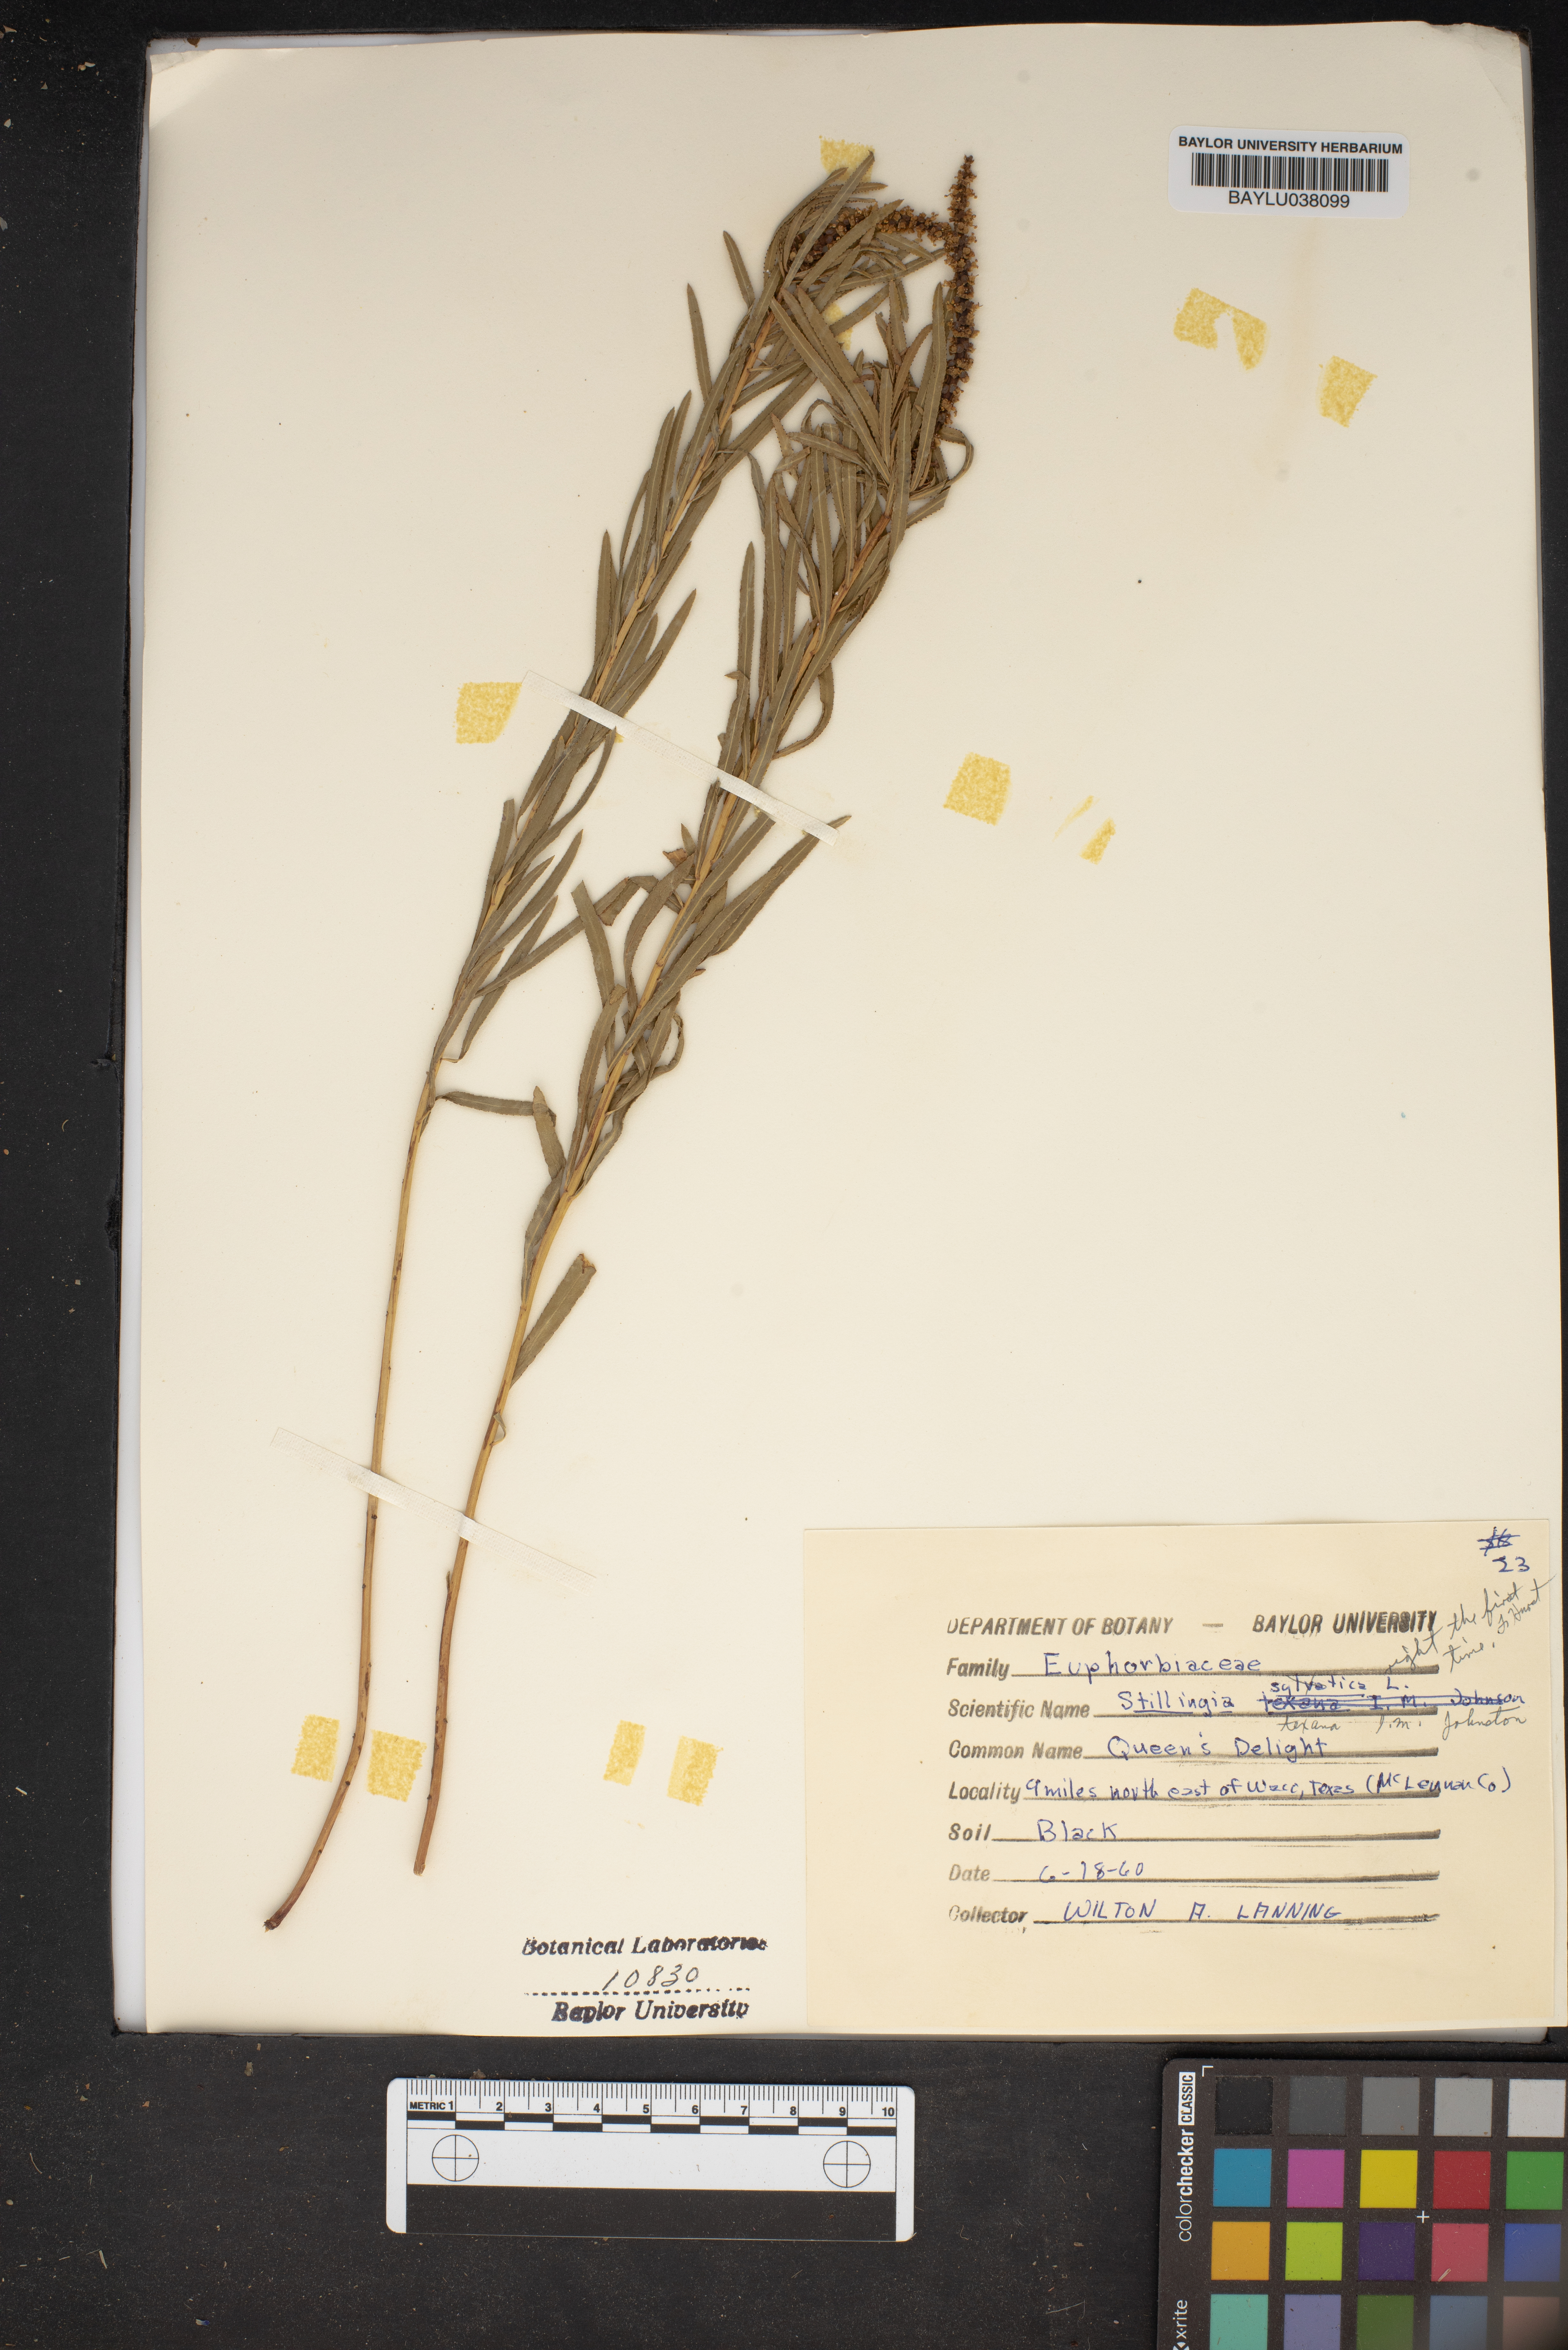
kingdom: Plantae
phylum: Tracheophyta
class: Magnoliopsida
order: Malpighiales
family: Euphorbiaceae
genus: Stillingia
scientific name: Stillingia sylvatica
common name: Queen's-delight
